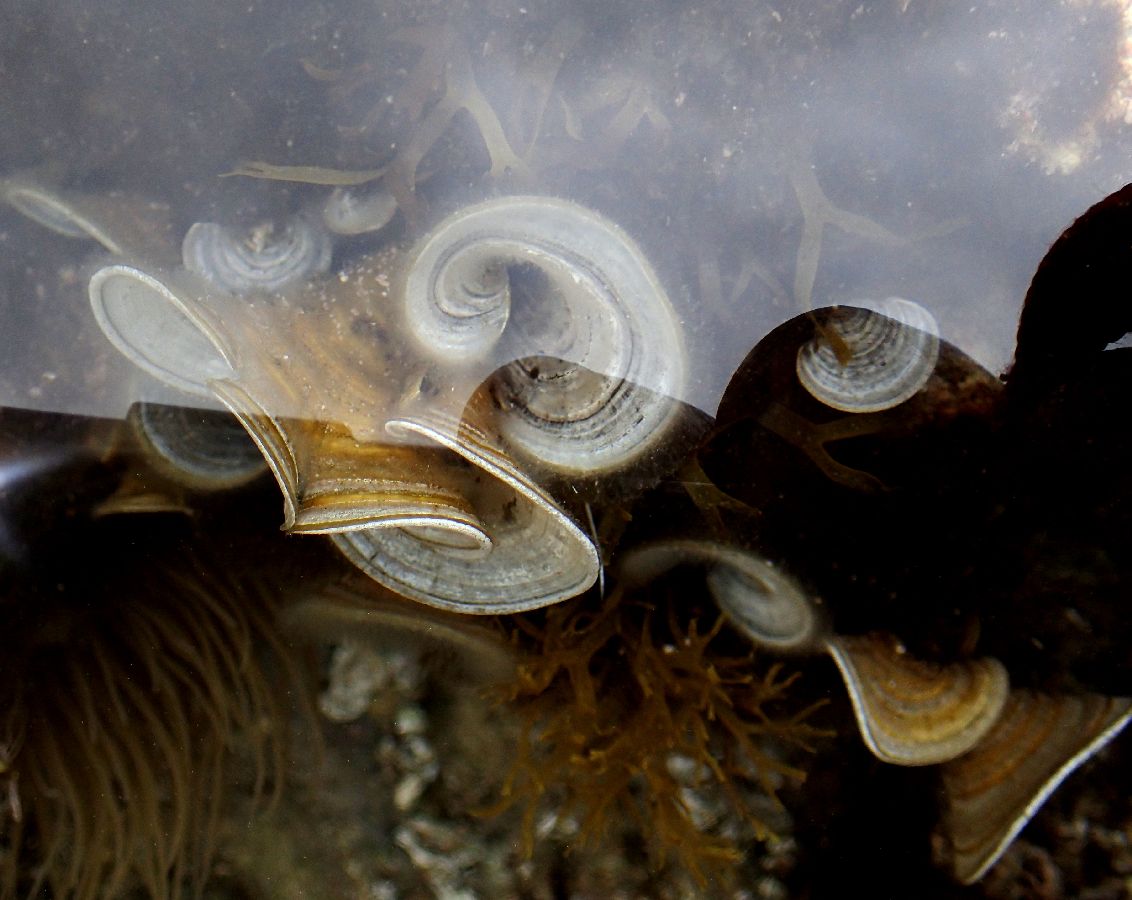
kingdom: Chromista
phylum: Ochrophyta
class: Phaeophyceae
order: Dictyotales
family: Dictyotaceae
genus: Padina
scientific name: Padina pavonica
